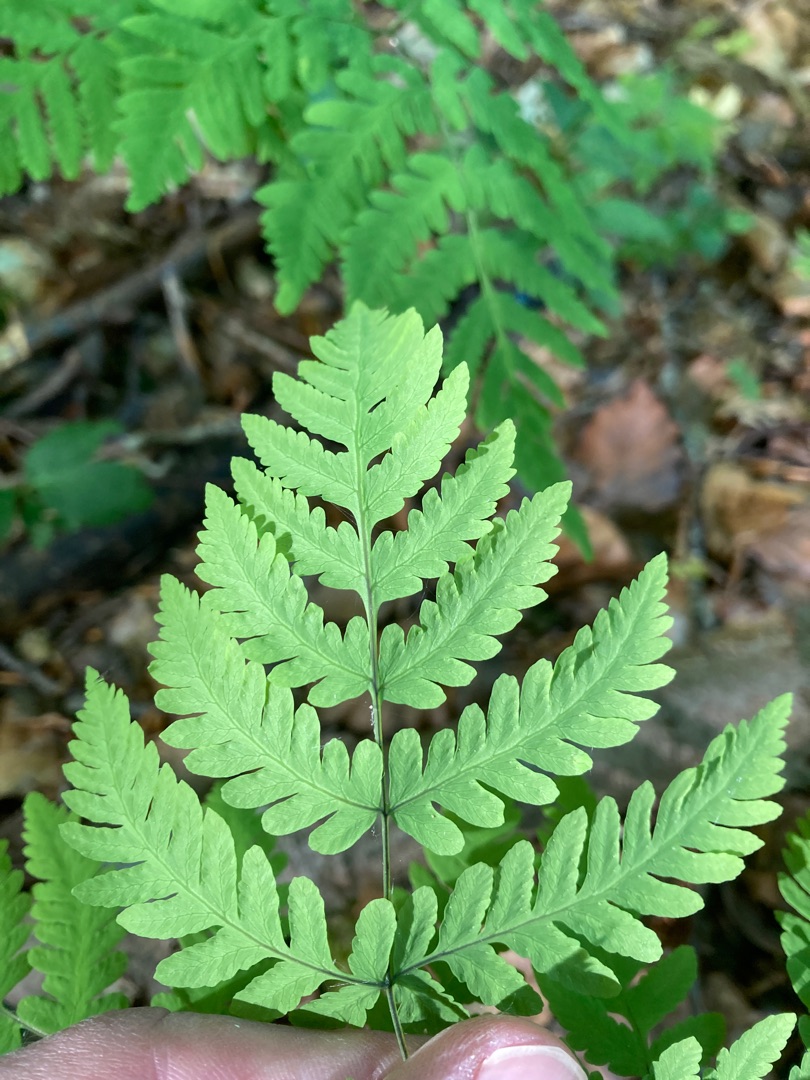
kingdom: Plantae
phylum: Tracheophyta
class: Polypodiopsida
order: Polypodiales
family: Cystopteridaceae
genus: Gymnocarpium
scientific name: Gymnocarpium dryopteris
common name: Tredelt egebregne
